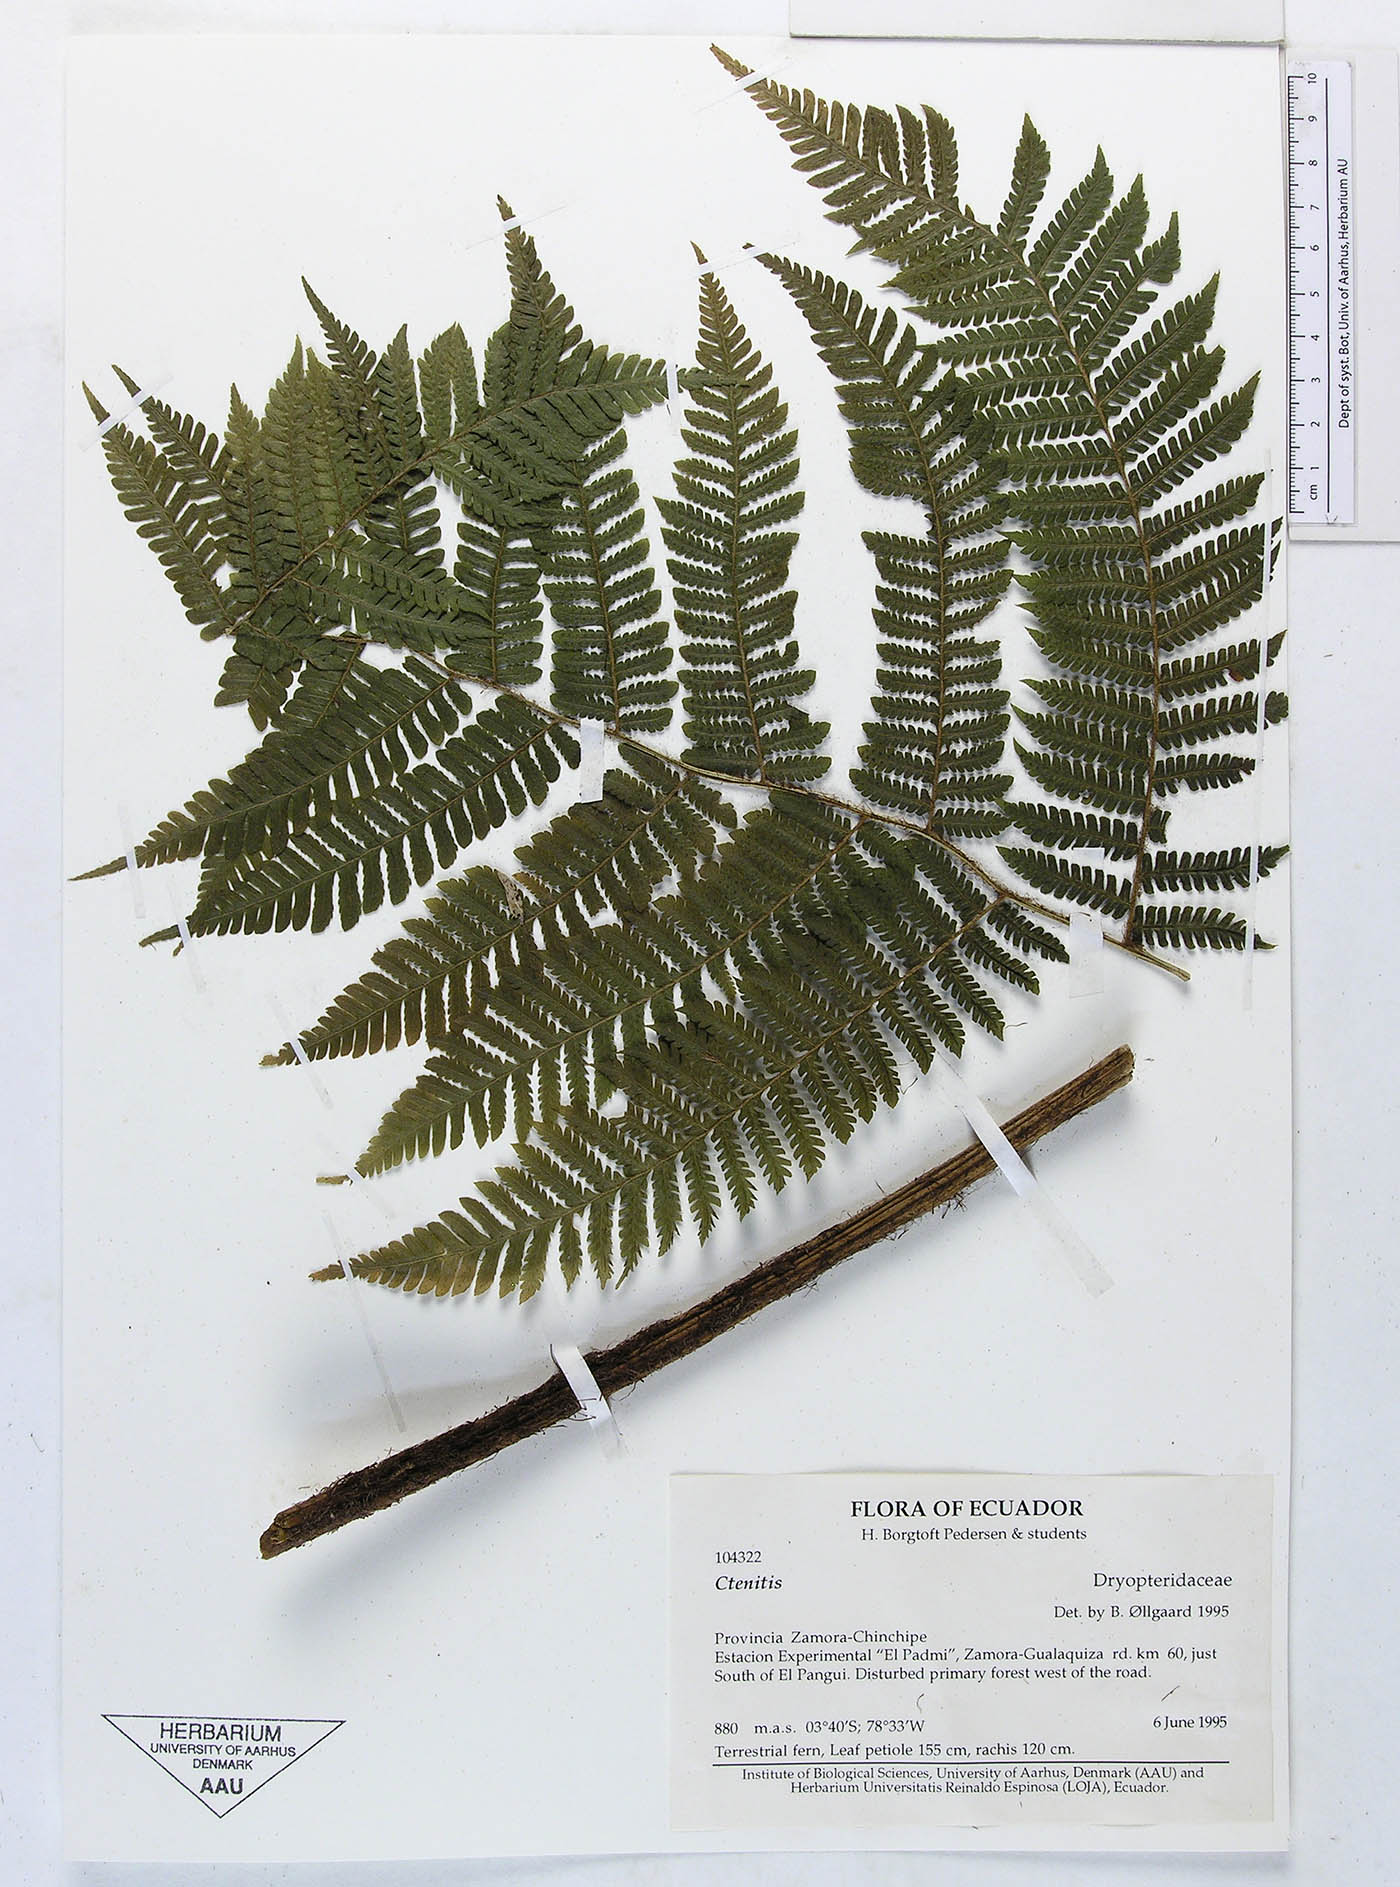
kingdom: Plantae
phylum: Tracheophyta
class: Polypodiopsida
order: Polypodiales
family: Dryopteridaceae
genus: Megalastrum
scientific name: Megalastrum praetermissum
